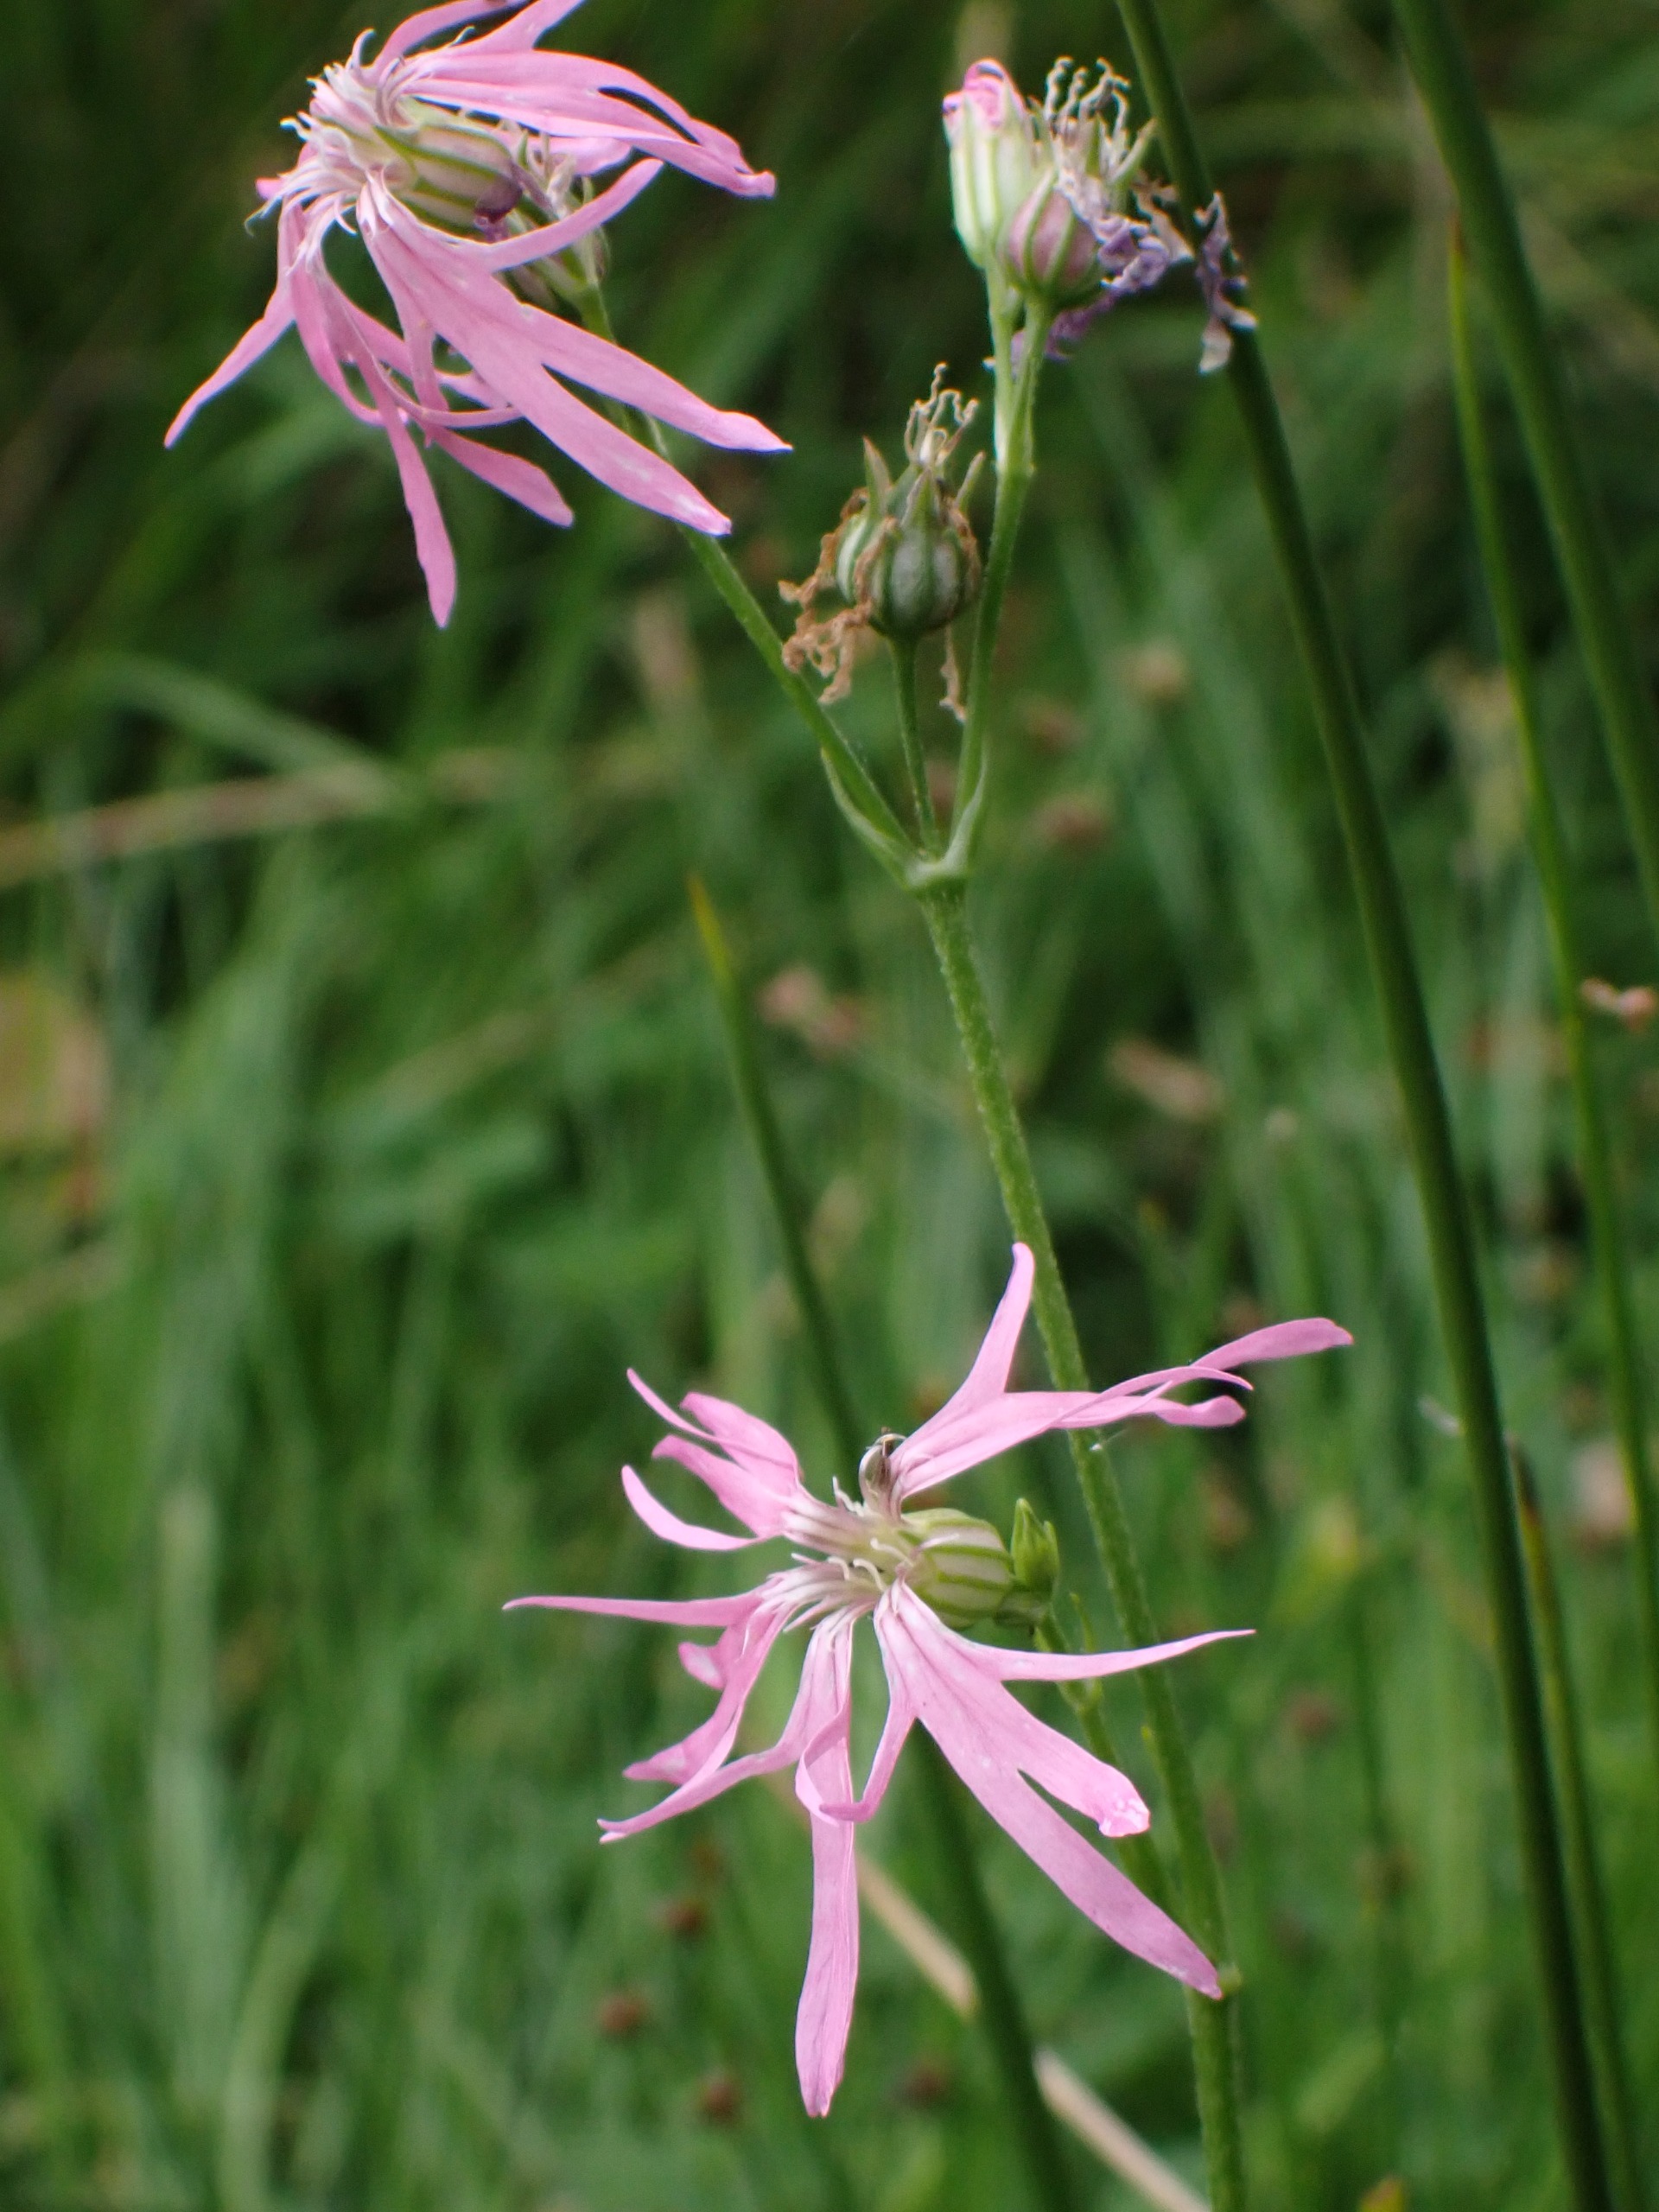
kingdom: Plantae
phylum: Tracheophyta
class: Magnoliopsida
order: Caryophyllales
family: Caryophyllaceae
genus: Silene
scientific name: Silene flos-cuculi
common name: Trævlekrone
